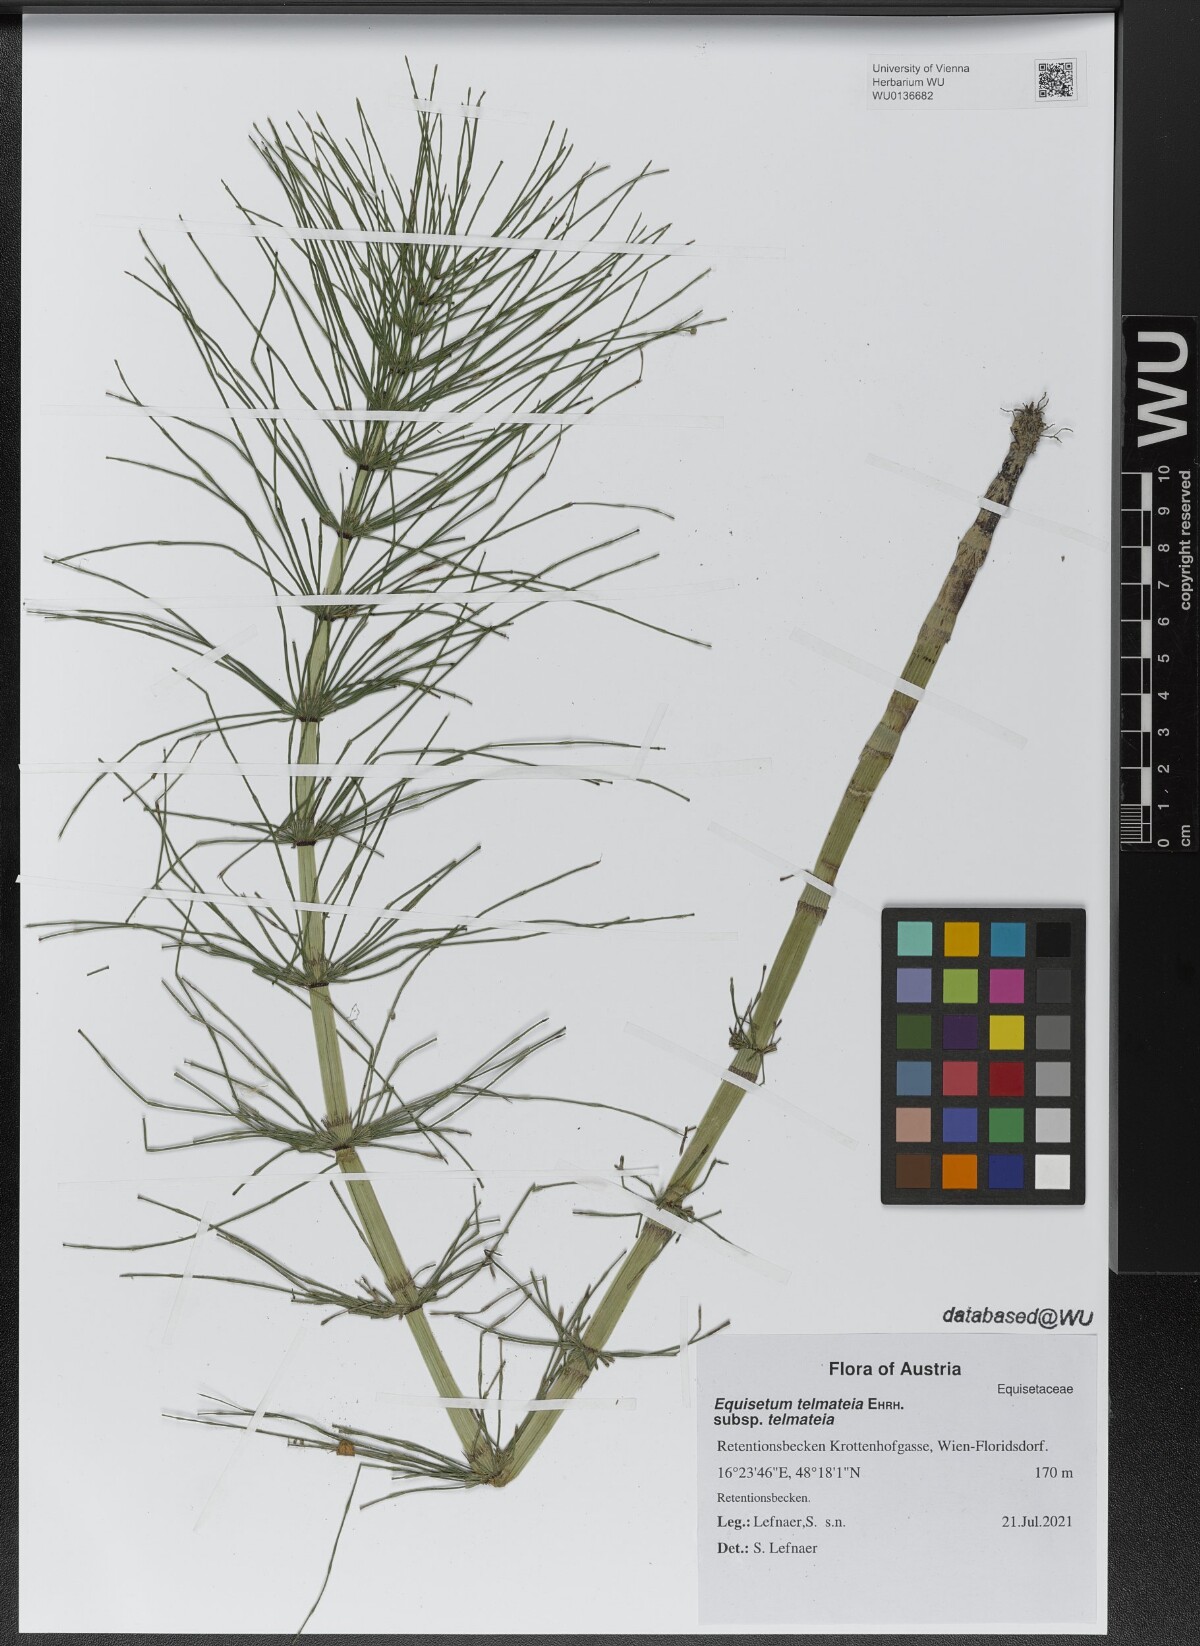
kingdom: Plantae
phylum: Tracheophyta
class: Polypodiopsida
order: Equisetales
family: Equisetaceae
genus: Equisetum
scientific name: Equisetum telmateia
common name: Great horsetail
